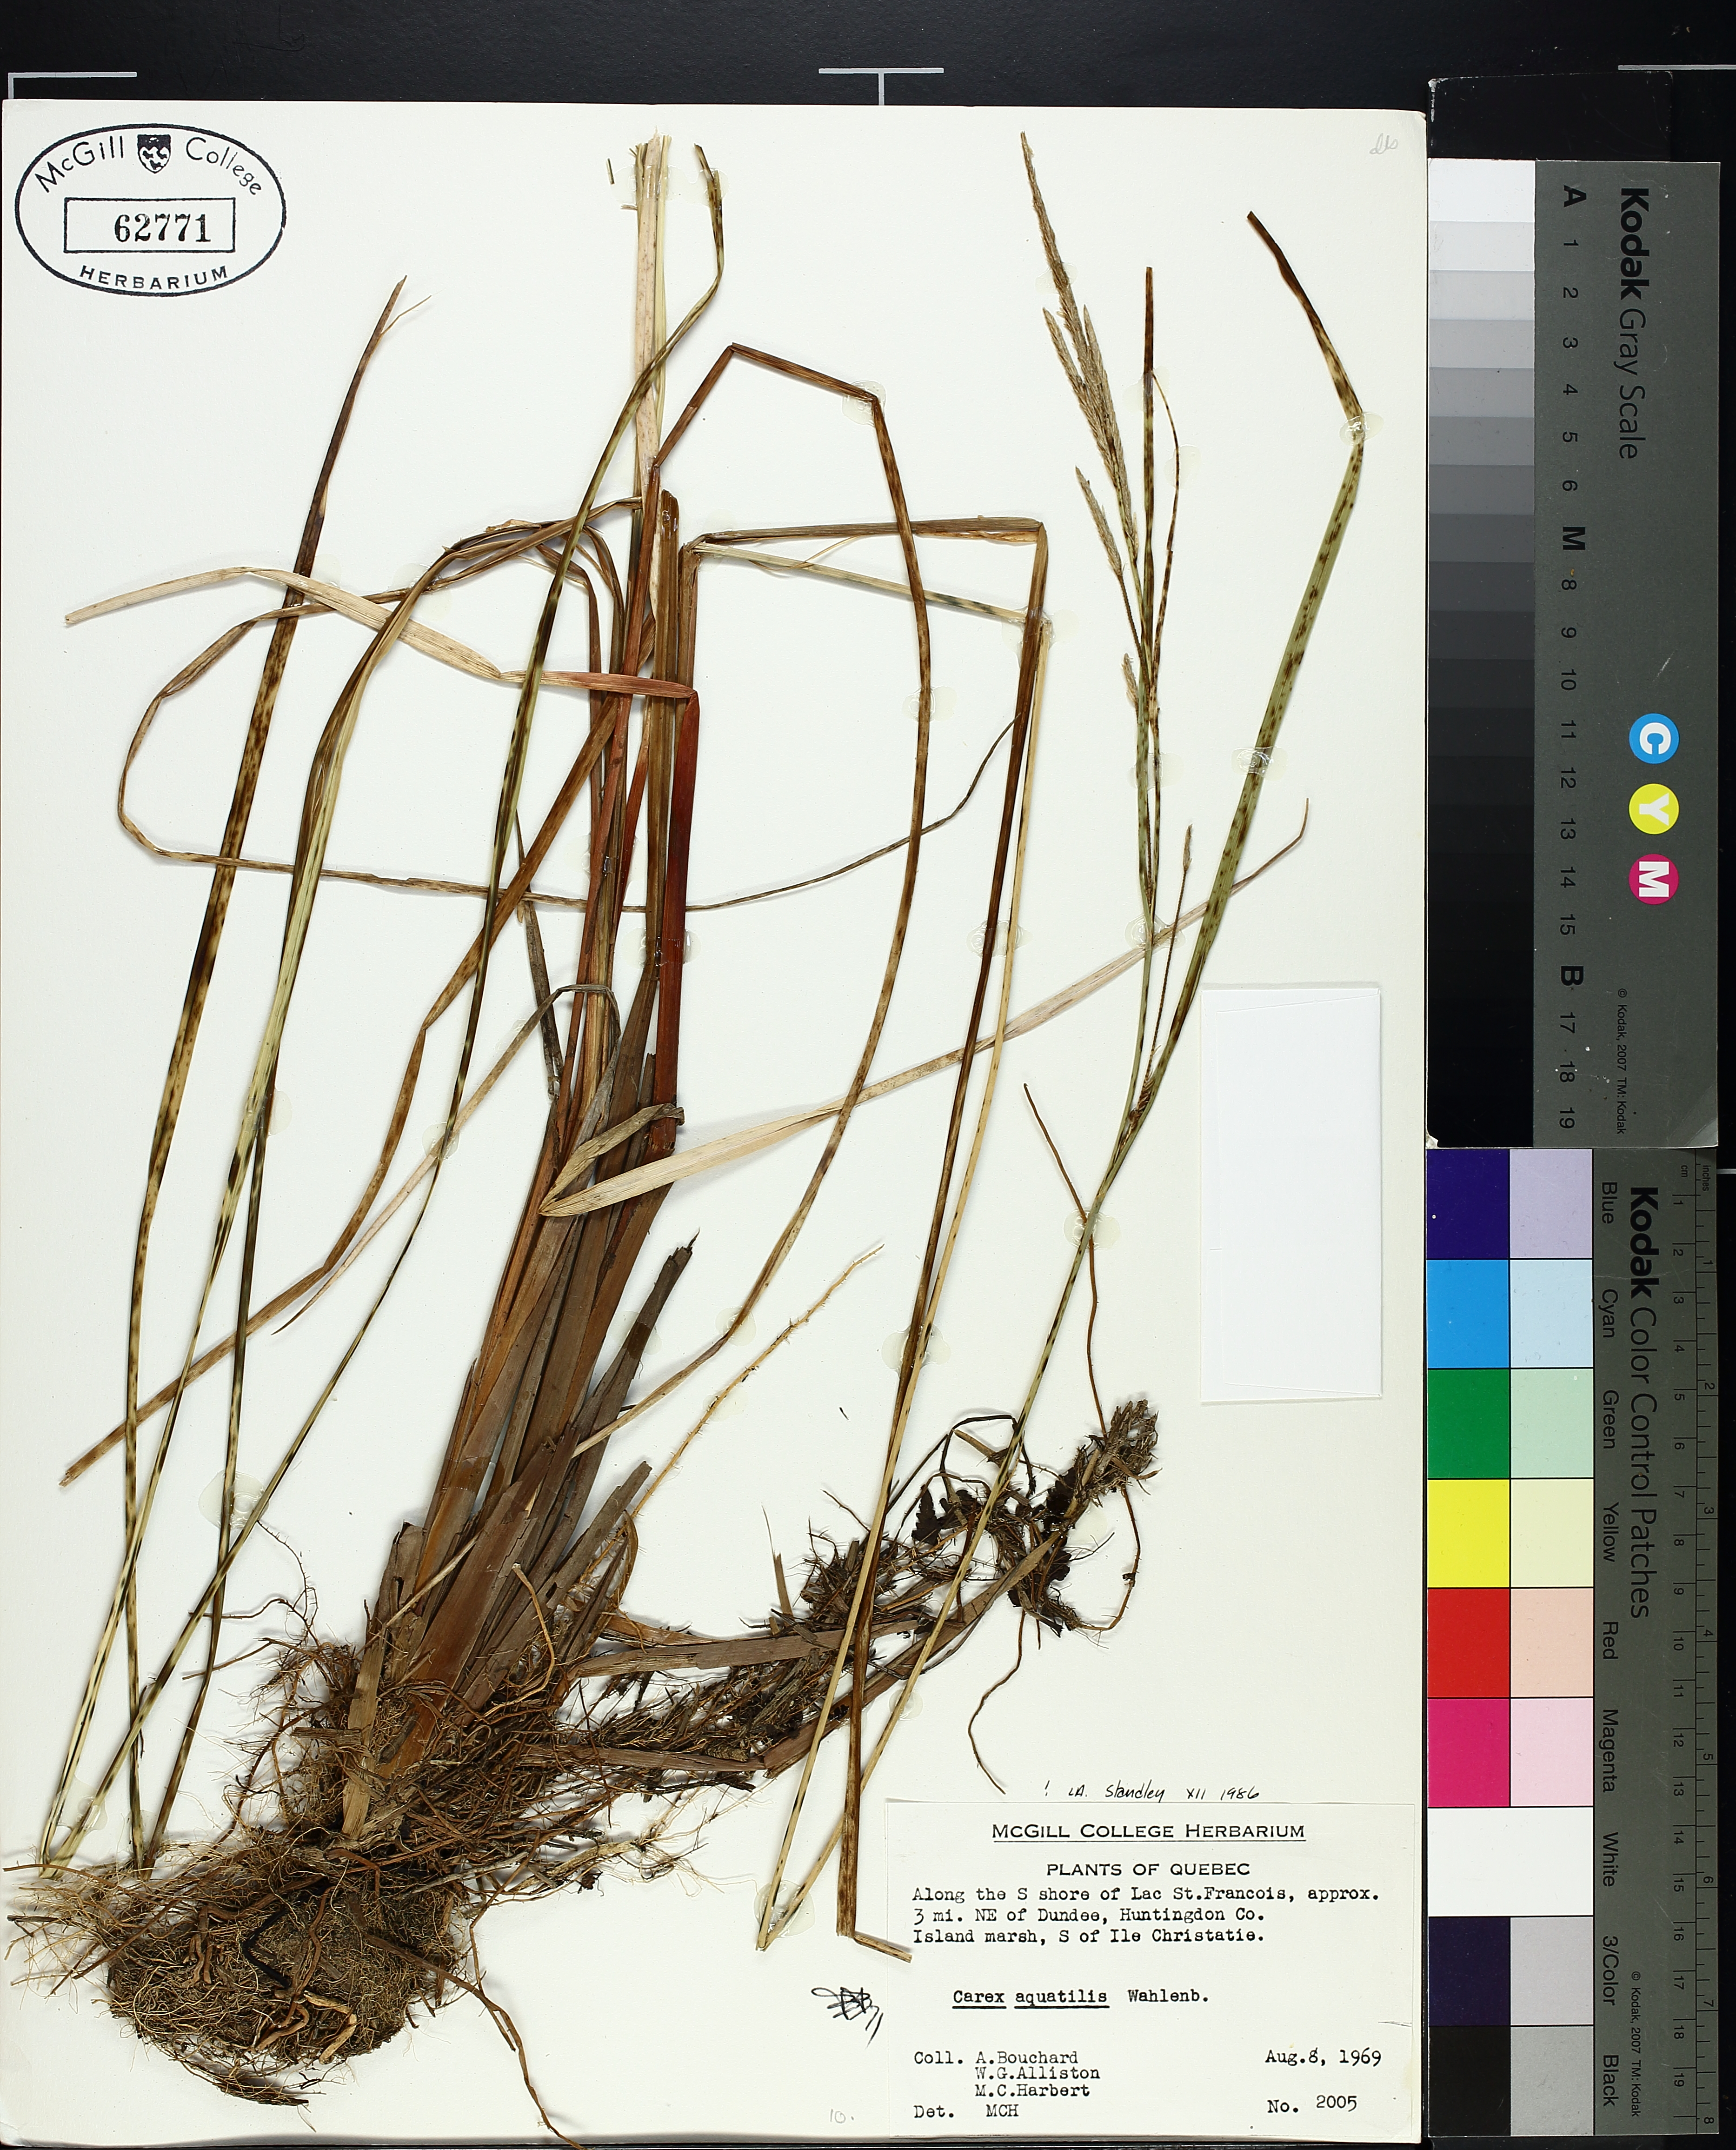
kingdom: Plantae
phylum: Tracheophyta
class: Liliopsida
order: Poales
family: Cyperaceae
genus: Carex
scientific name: Carex aquatilis
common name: Water sedge
